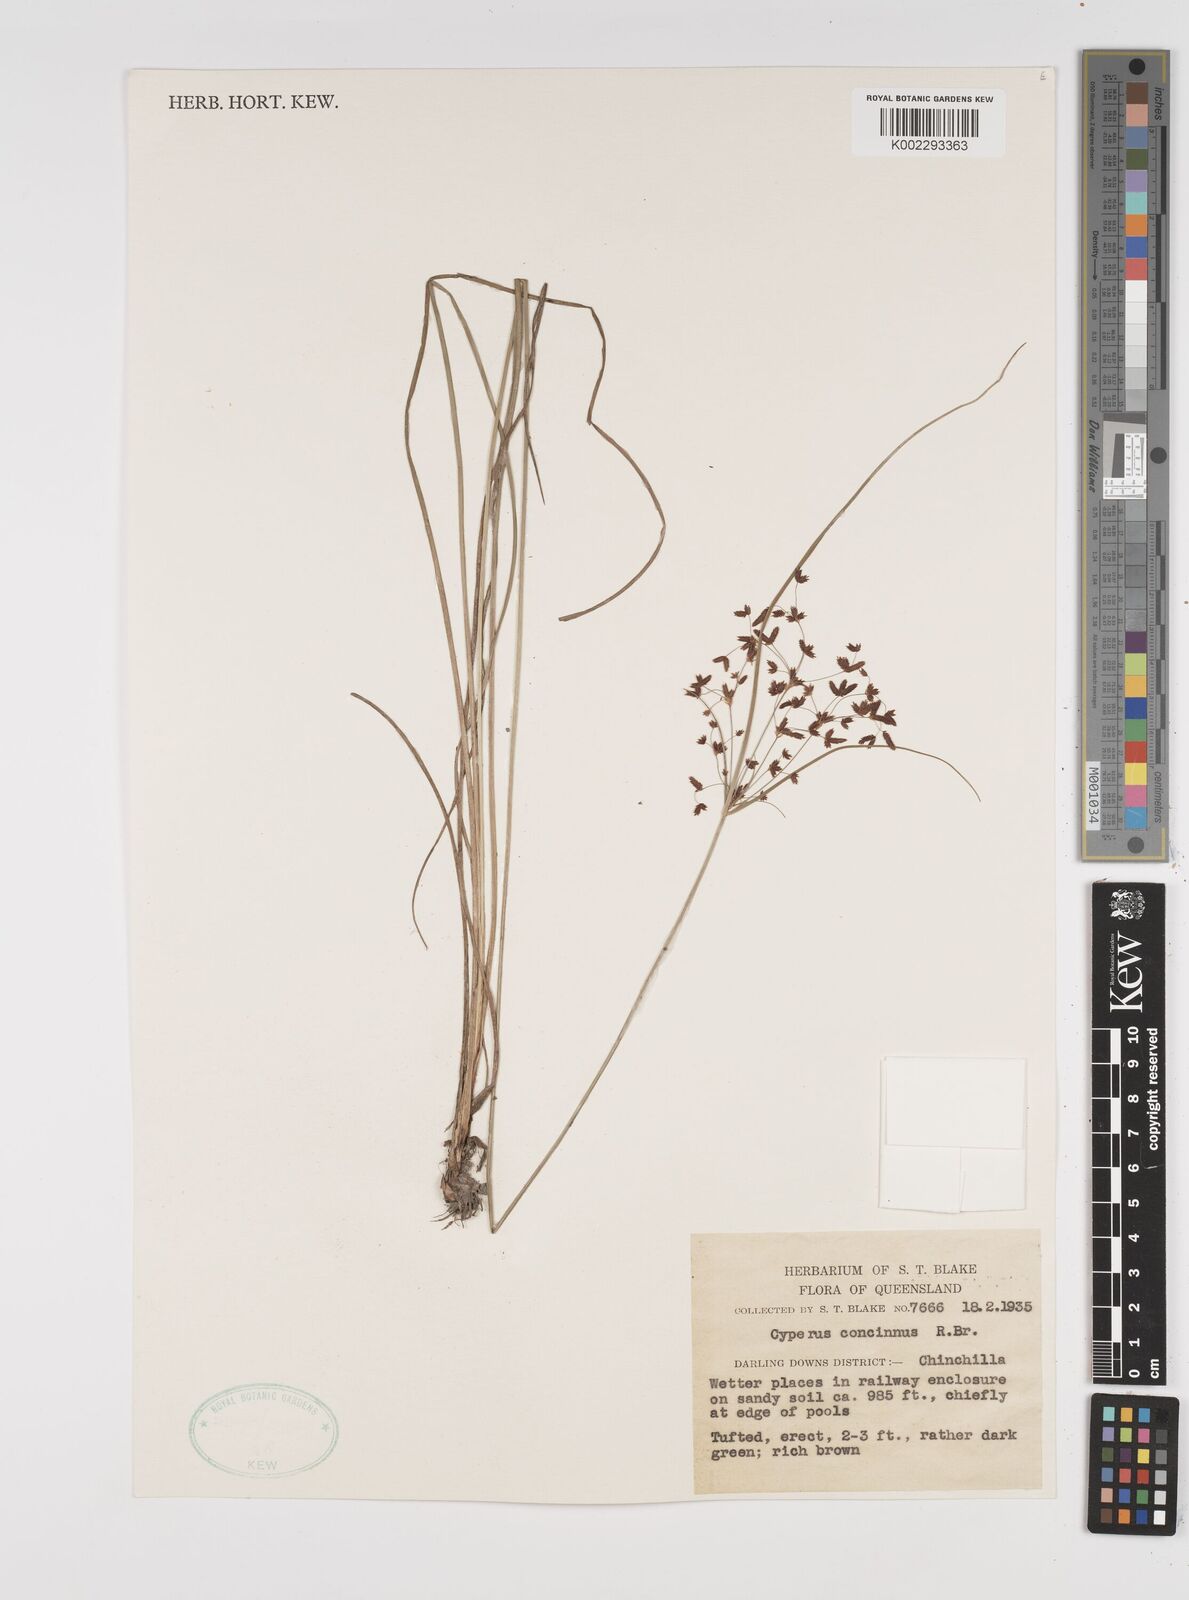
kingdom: Plantae
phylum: Tracheophyta
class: Liliopsida
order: Poales
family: Cyperaceae
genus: Cyperus
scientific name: Cyperus concinnus
